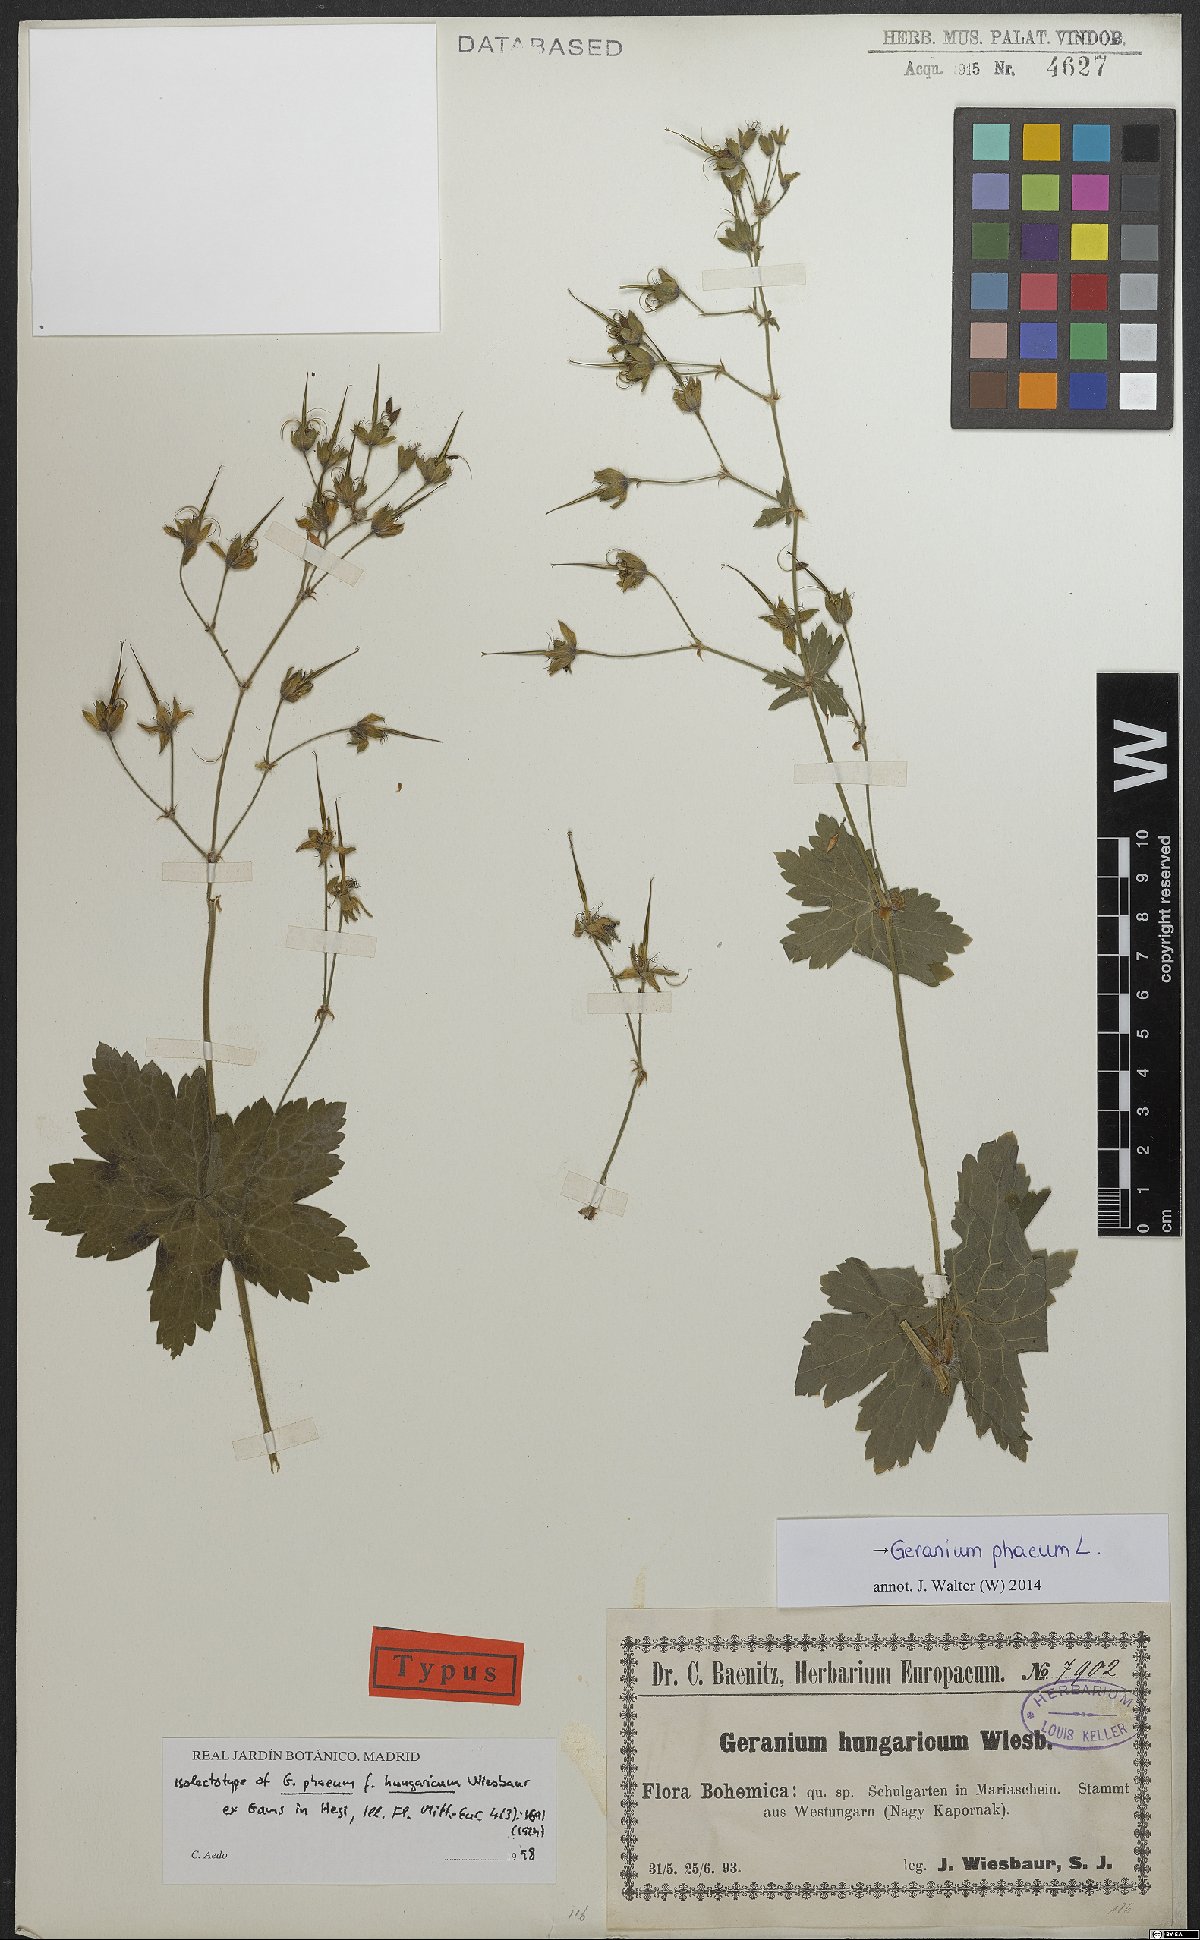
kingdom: Plantae
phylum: Tracheophyta
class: Magnoliopsida
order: Geraniales
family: Geraniaceae
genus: Geranium
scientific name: Geranium phaeum
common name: Dusky crane's-bill
